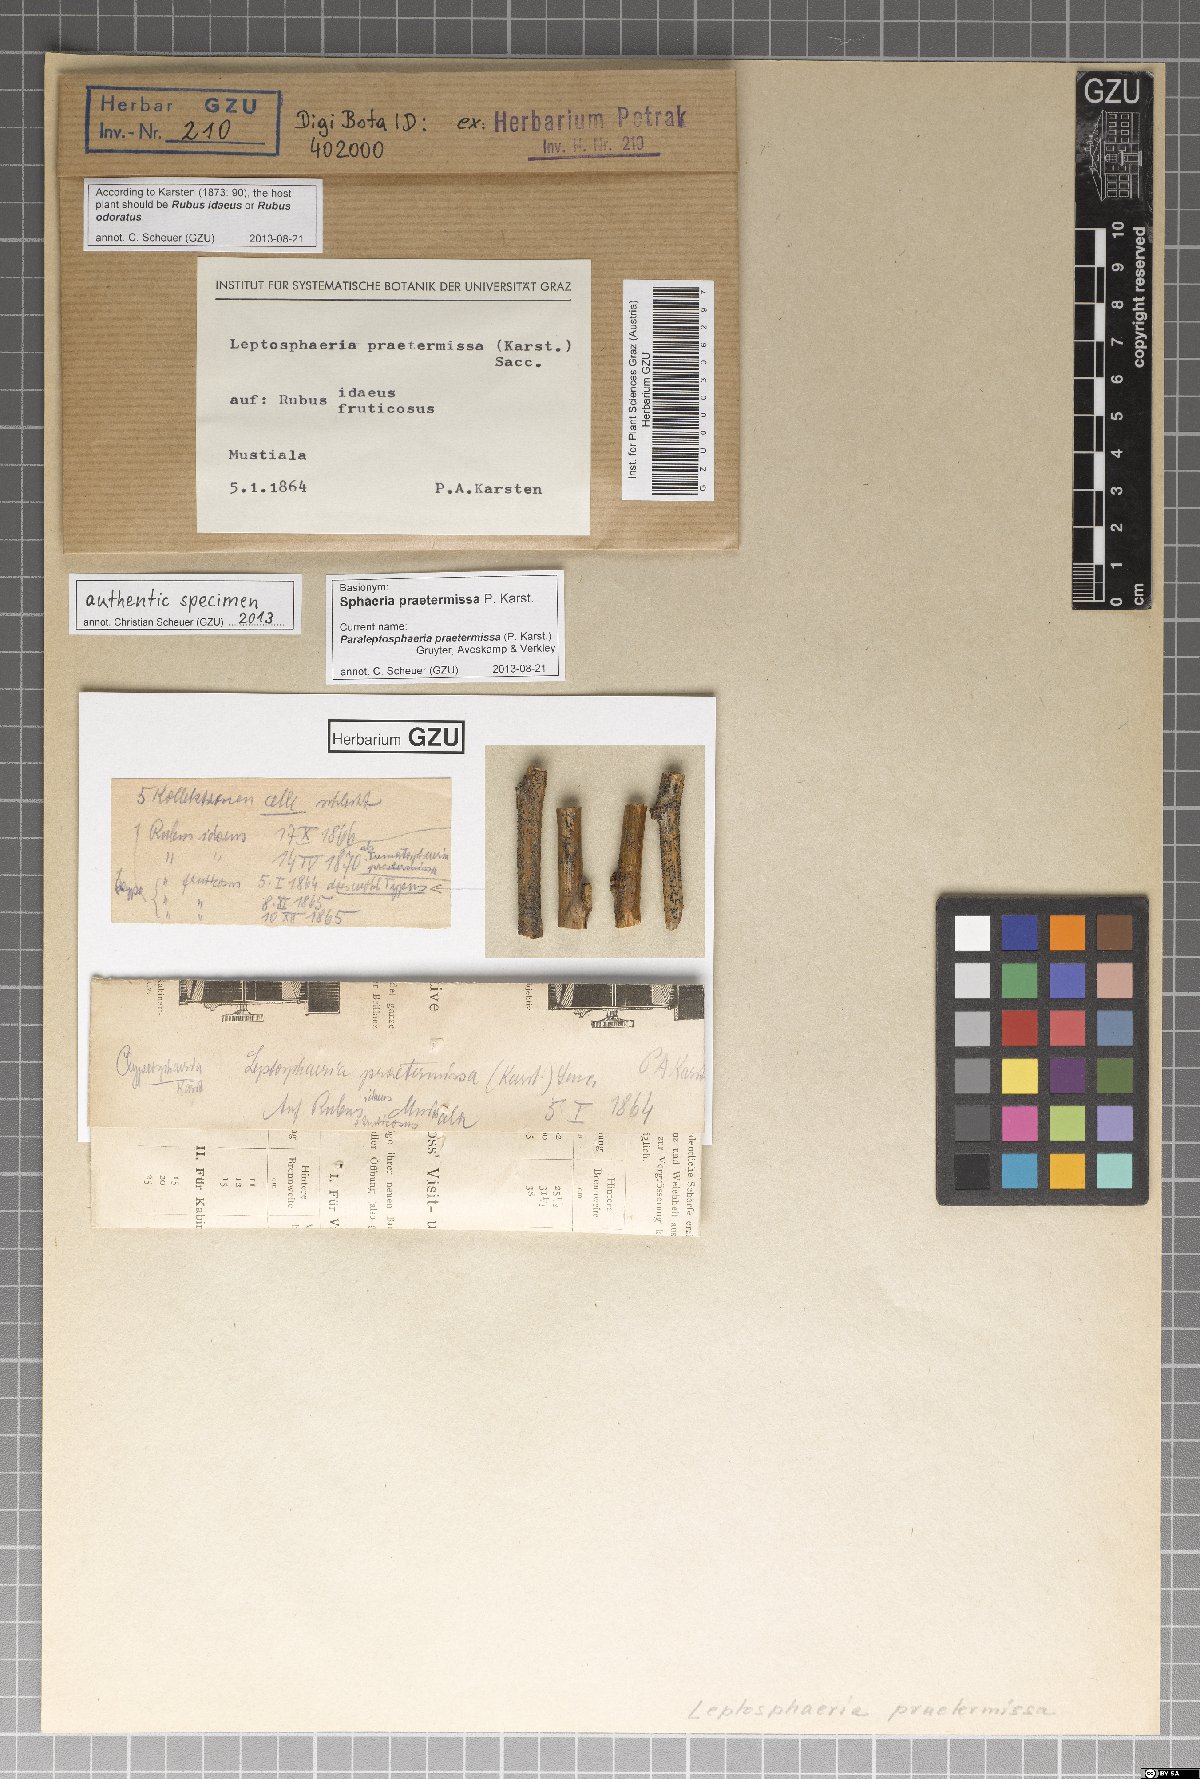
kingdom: Fungi
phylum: Ascomycota
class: Dothideomycetes
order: Pleosporales
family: Leptosphaeriaceae
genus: Paraleptosphaeria
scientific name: Paraleptosphaeria praetermissa
